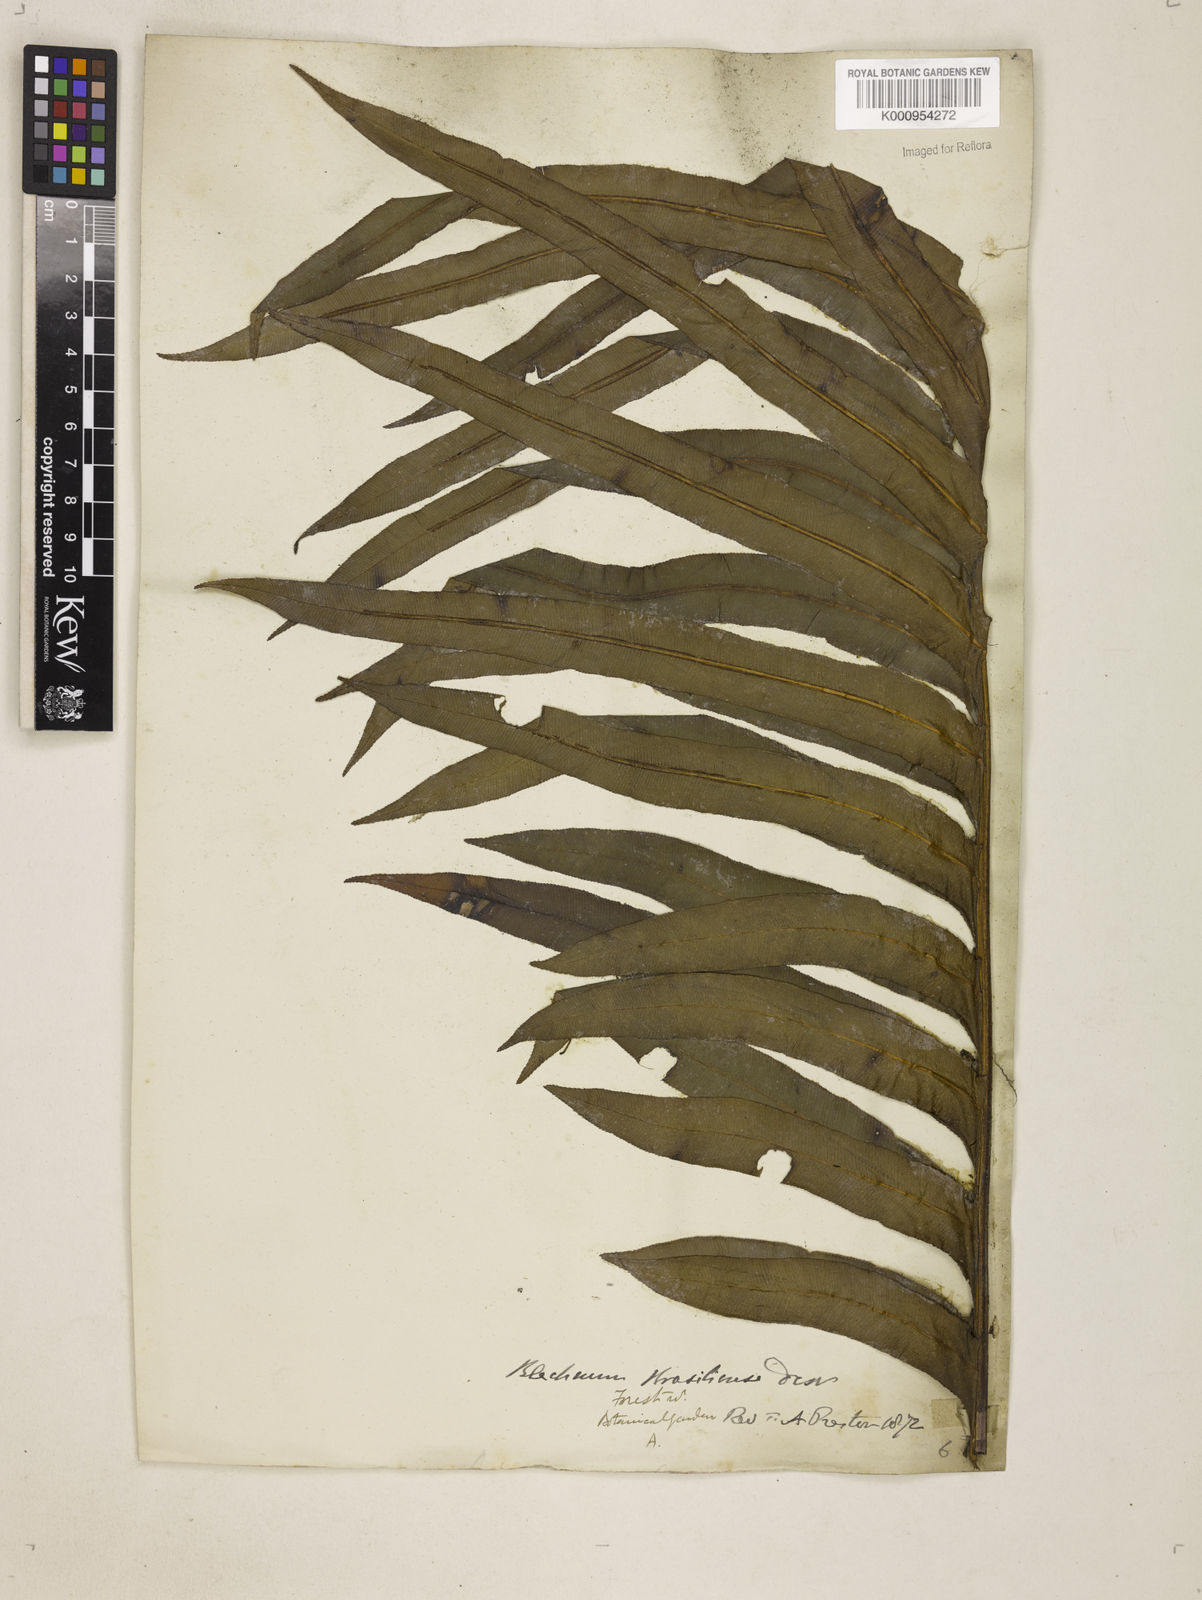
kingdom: Plantae
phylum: Tracheophyta
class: Polypodiopsida
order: Polypodiales
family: Blechnaceae
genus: Neoblechnum
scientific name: Neoblechnum brasiliense
